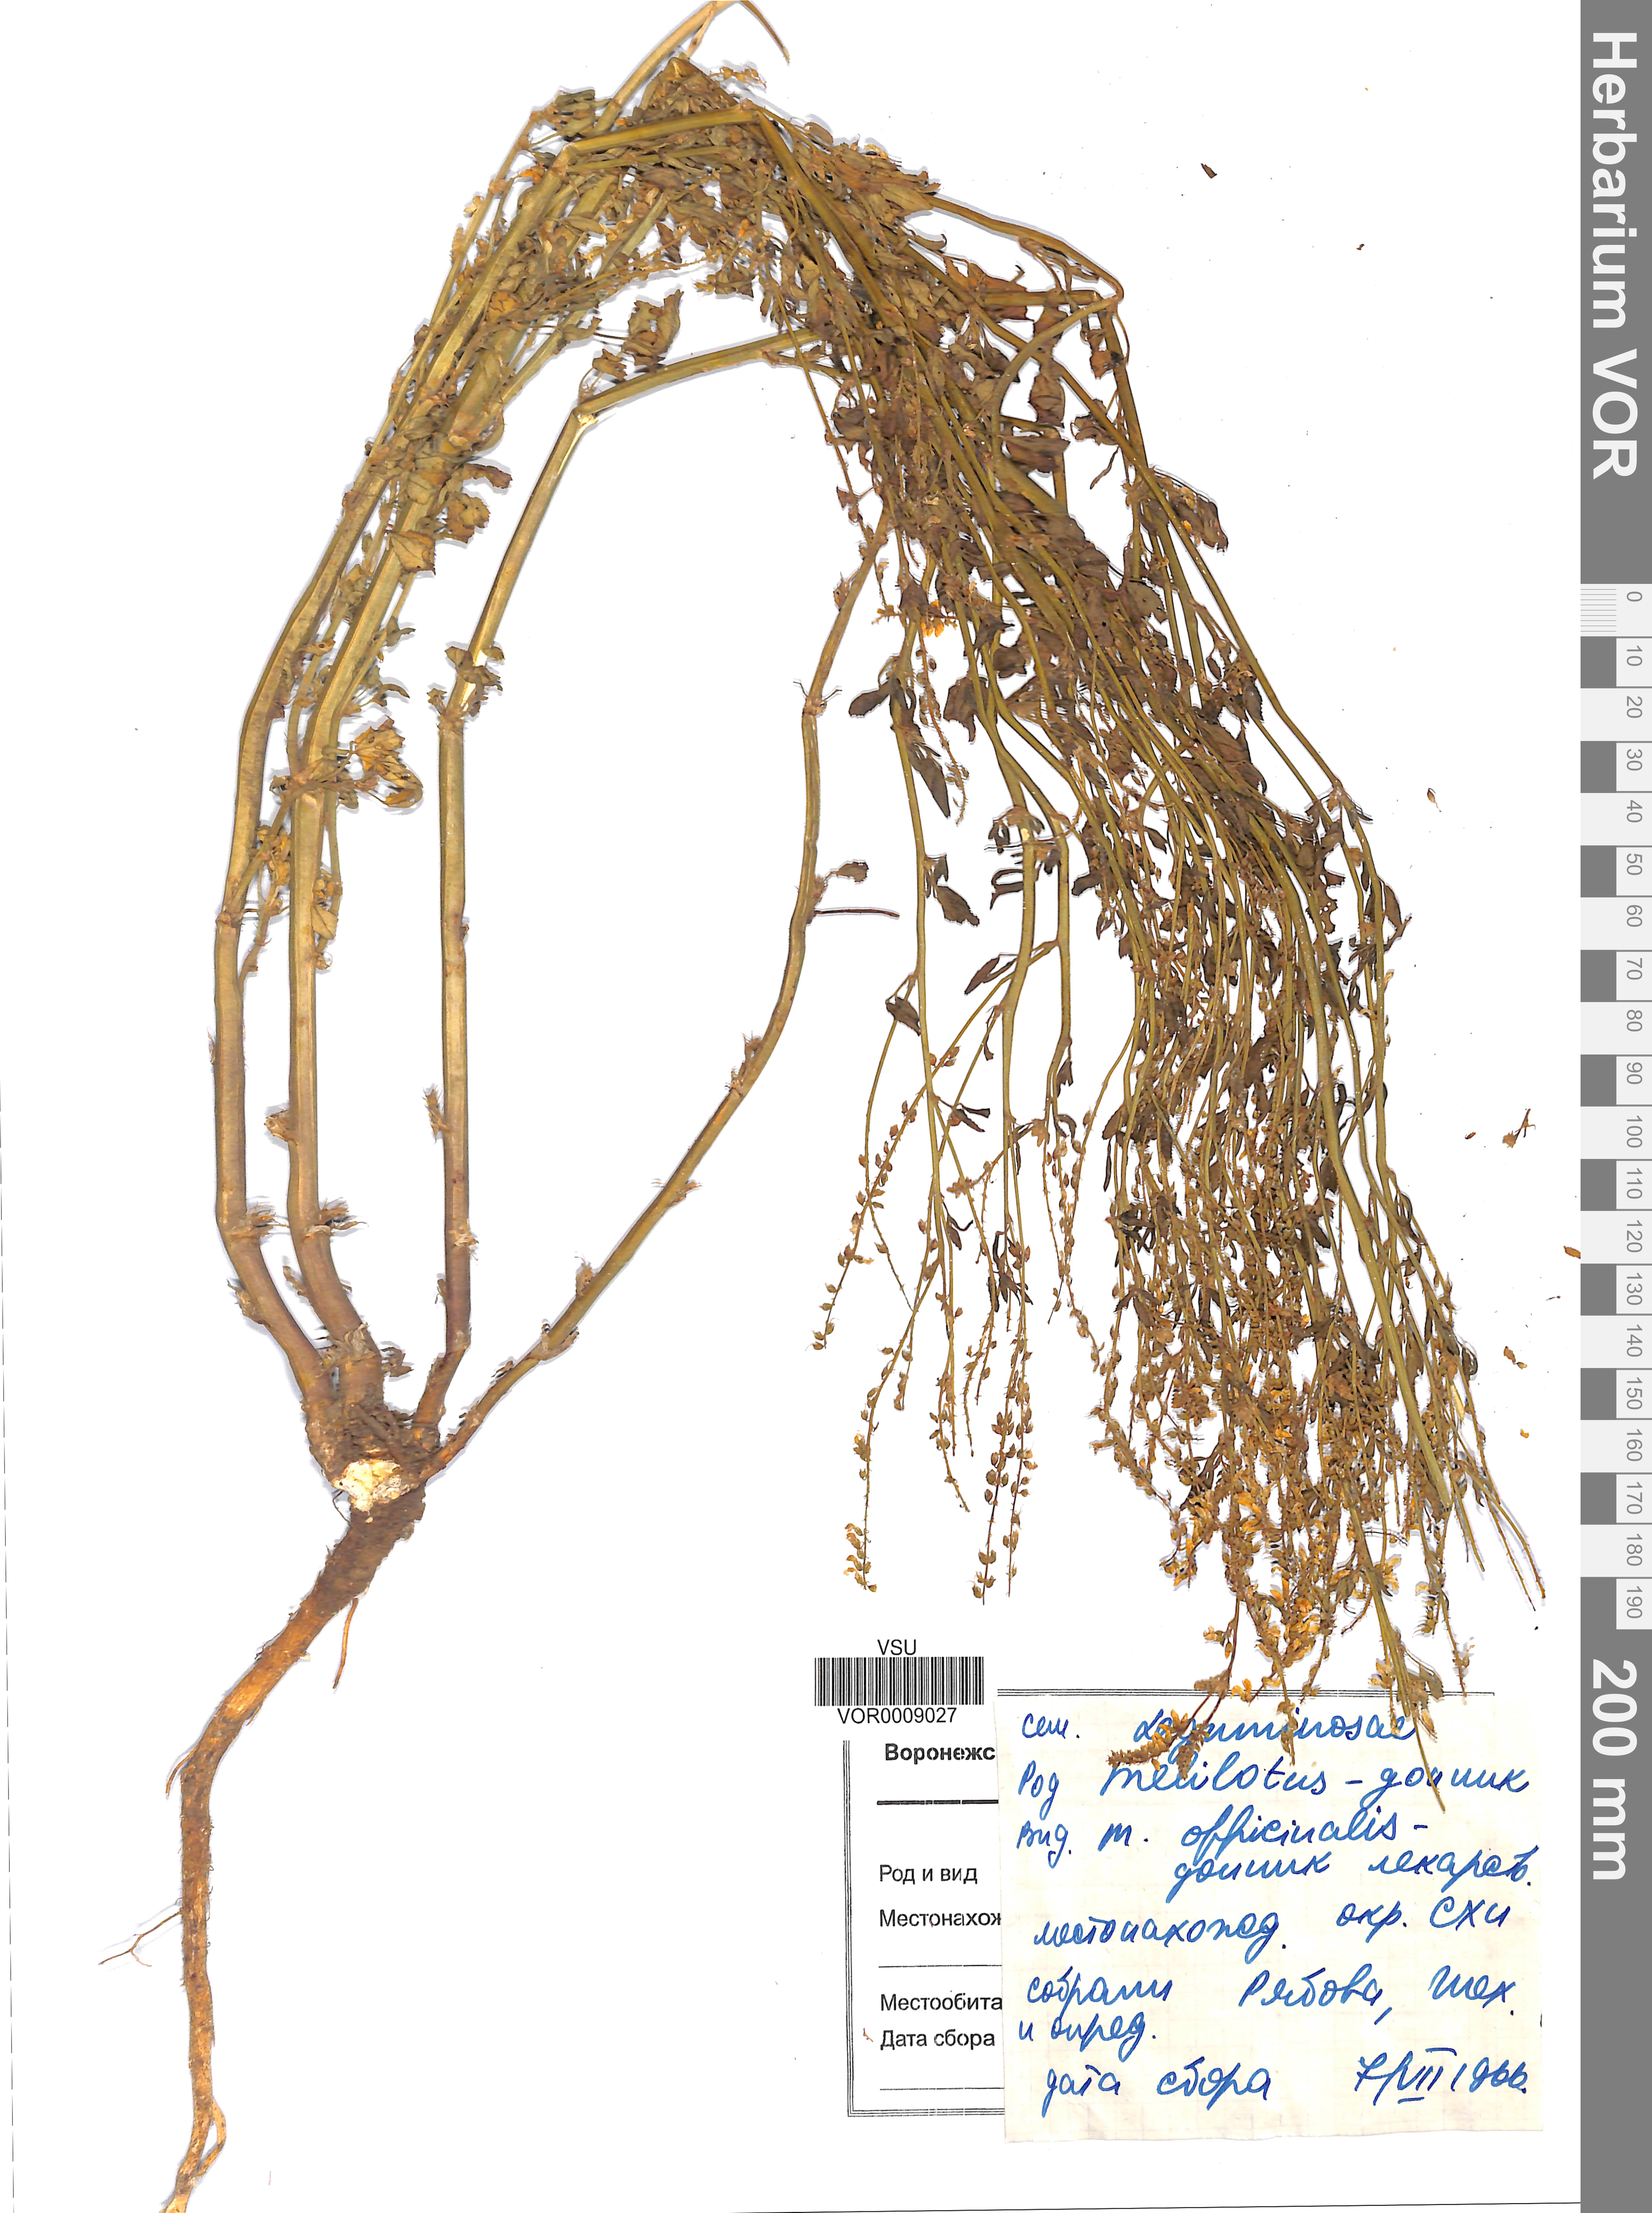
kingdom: Plantae
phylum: Tracheophyta
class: Magnoliopsida
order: Fabales
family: Fabaceae
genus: Melilotus
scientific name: Melilotus officinalis
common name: Sweetclover
